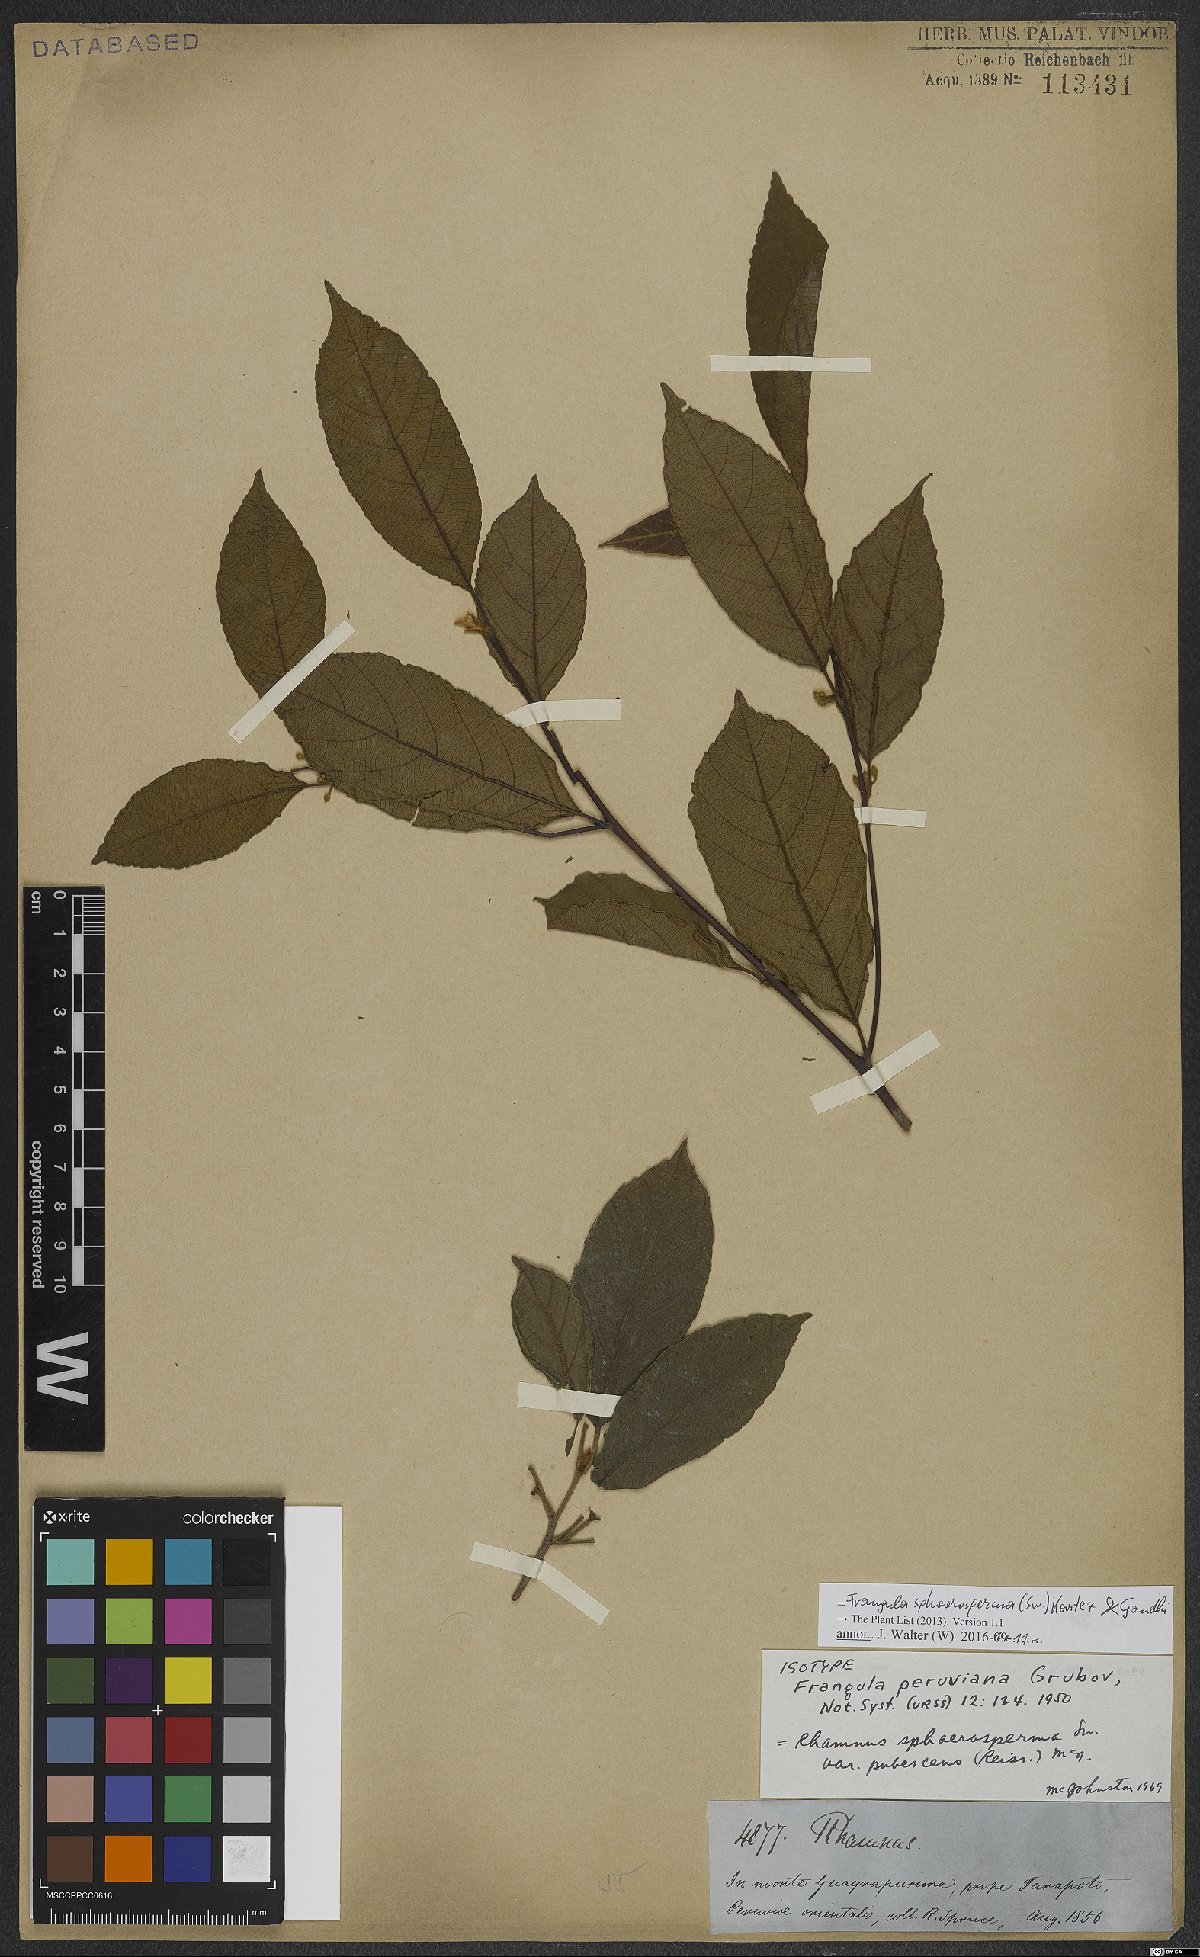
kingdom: Plantae
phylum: Tracheophyta
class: Magnoliopsida
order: Rosales
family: Rhamnaceae
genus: Frangula
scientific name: Frangula sphaerosperma
